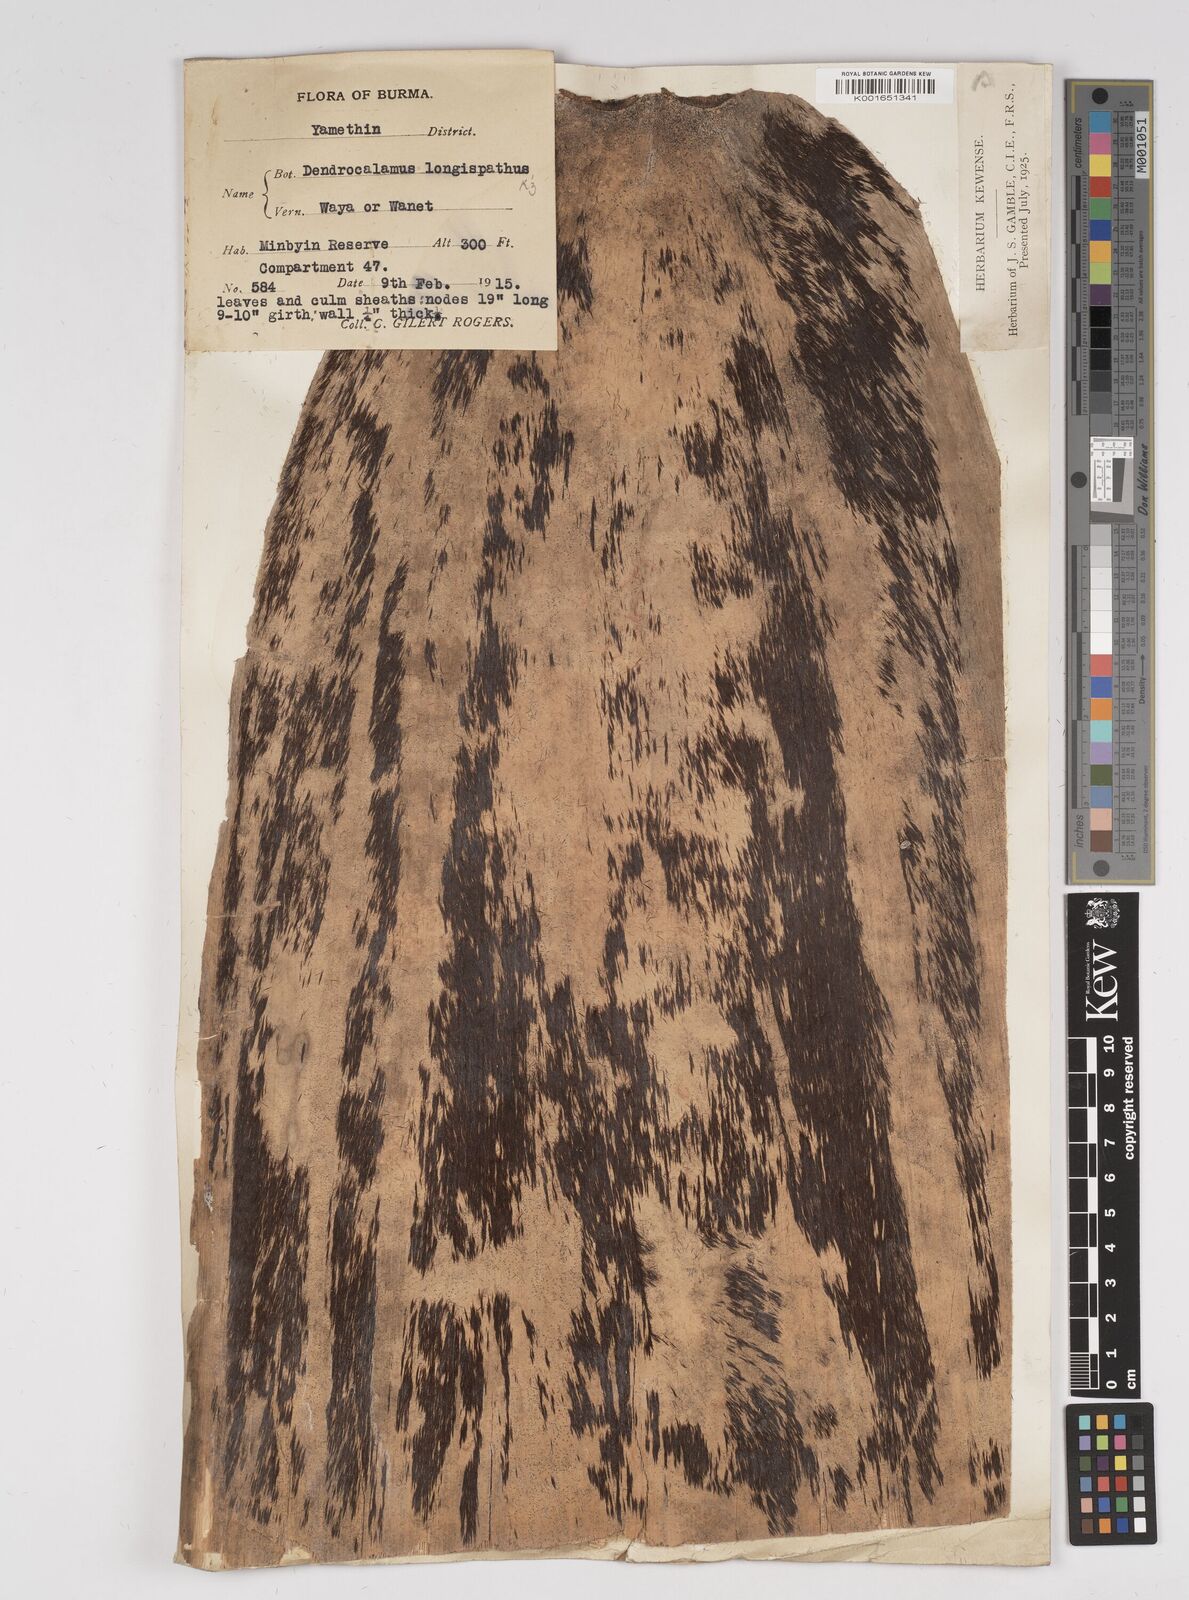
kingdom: Plantae
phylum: Tracheophyta
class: Liliopsida
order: Poales
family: Poaceae
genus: Dendrocalamus
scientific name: Dendrocalamus longispathus
